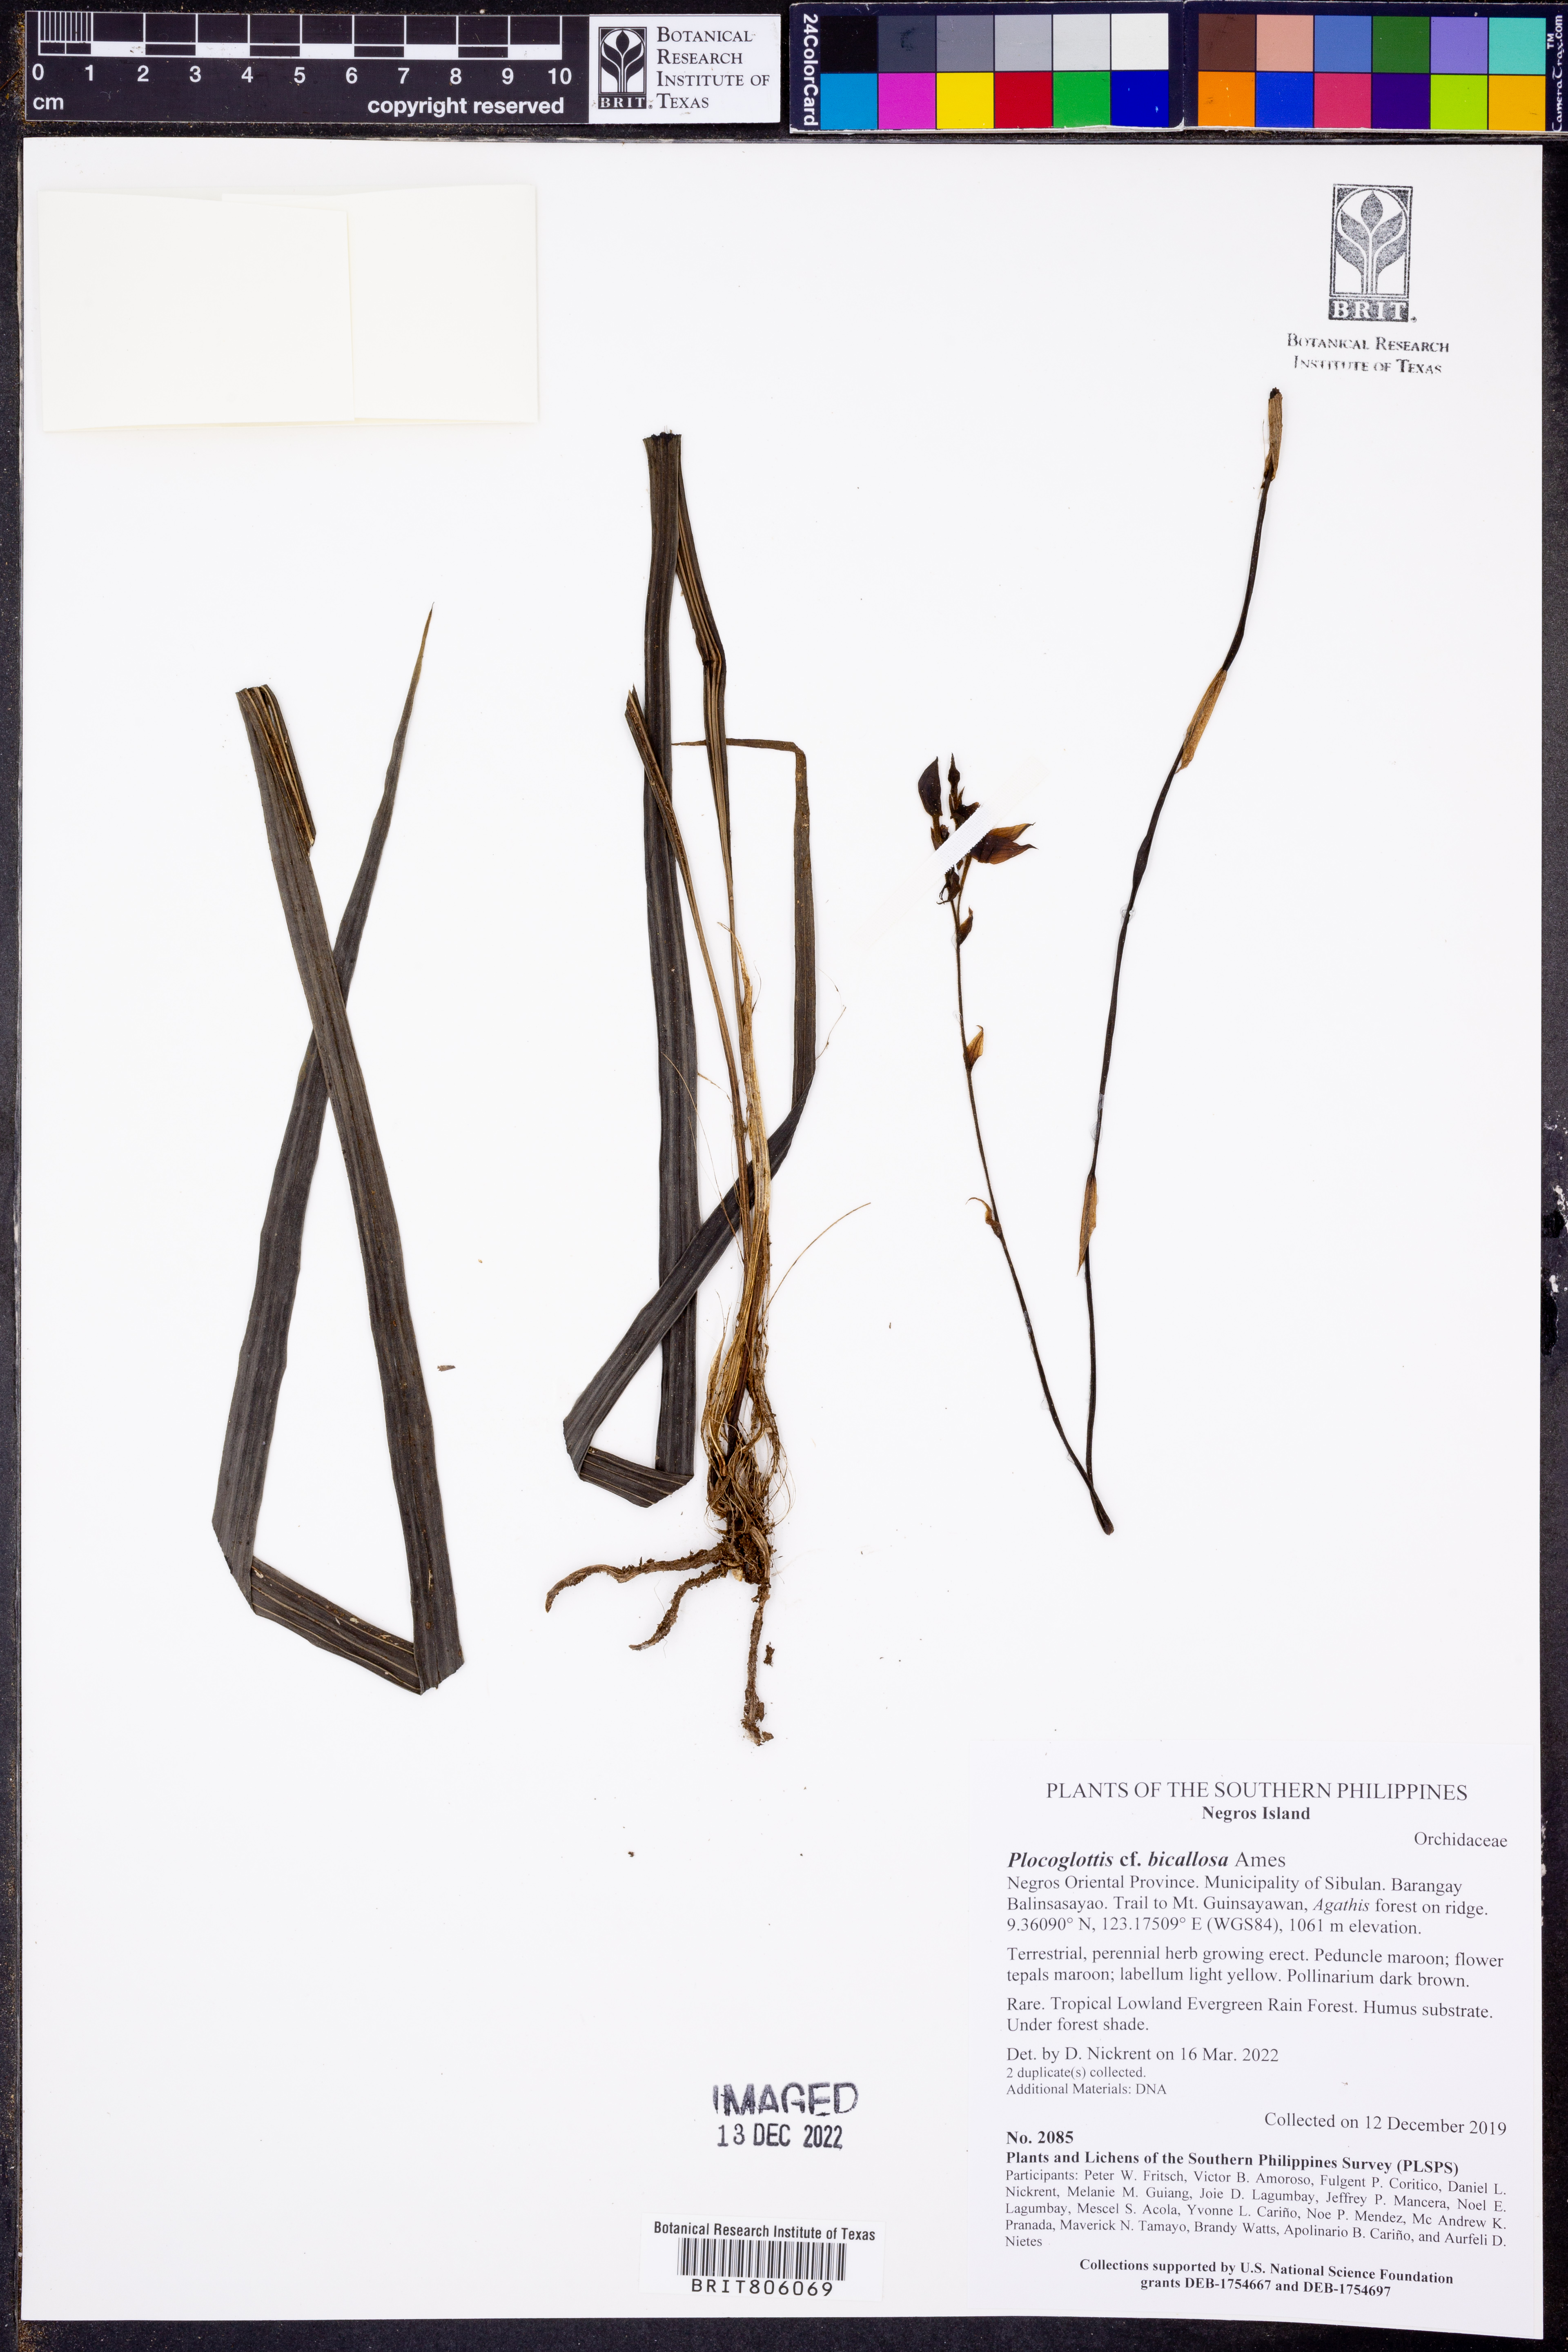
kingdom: Plantae
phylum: Tracheophyta
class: Liliopsida
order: Asparagales
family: Orchidaceae
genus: Plocoglottis
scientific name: Plocoglottis bicallosa
